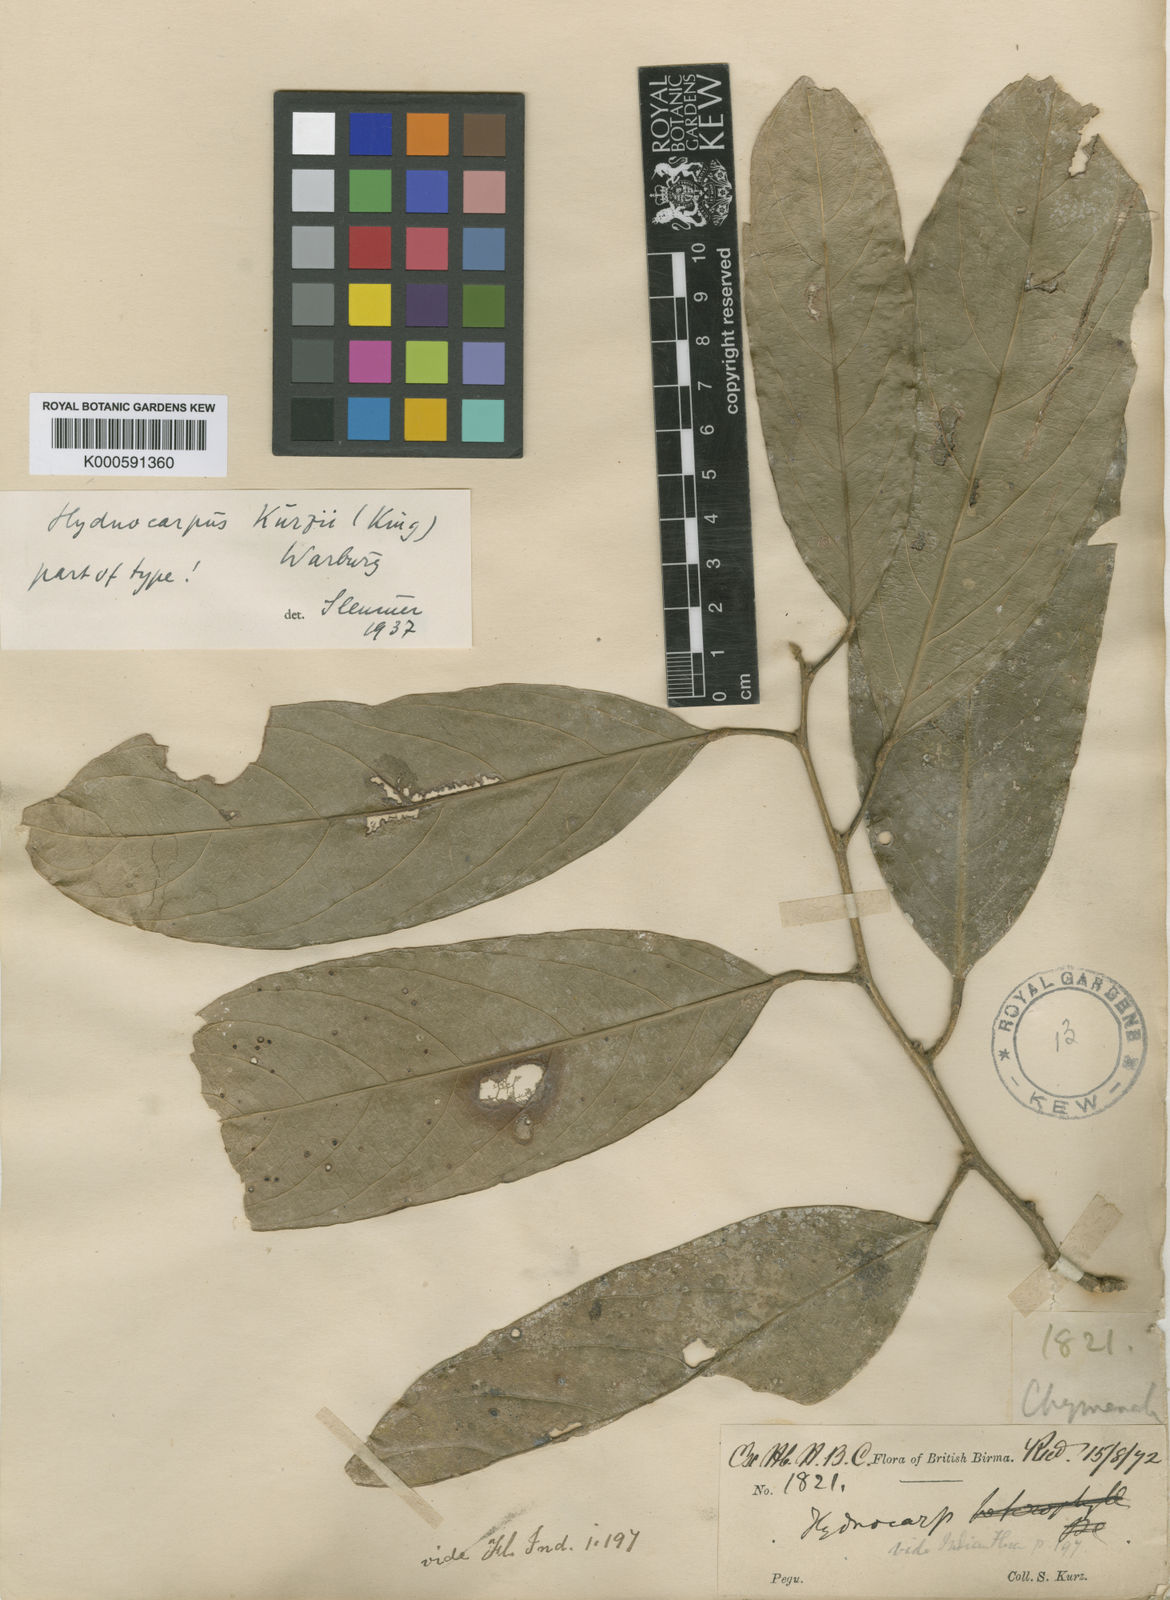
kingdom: Plantae
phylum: Tracheophyta
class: Magnoliopsida
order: Malpighiales
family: Achariaceae
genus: Hydnocarpus
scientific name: Hydnocarpus kurzii
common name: Chaulmoogra
